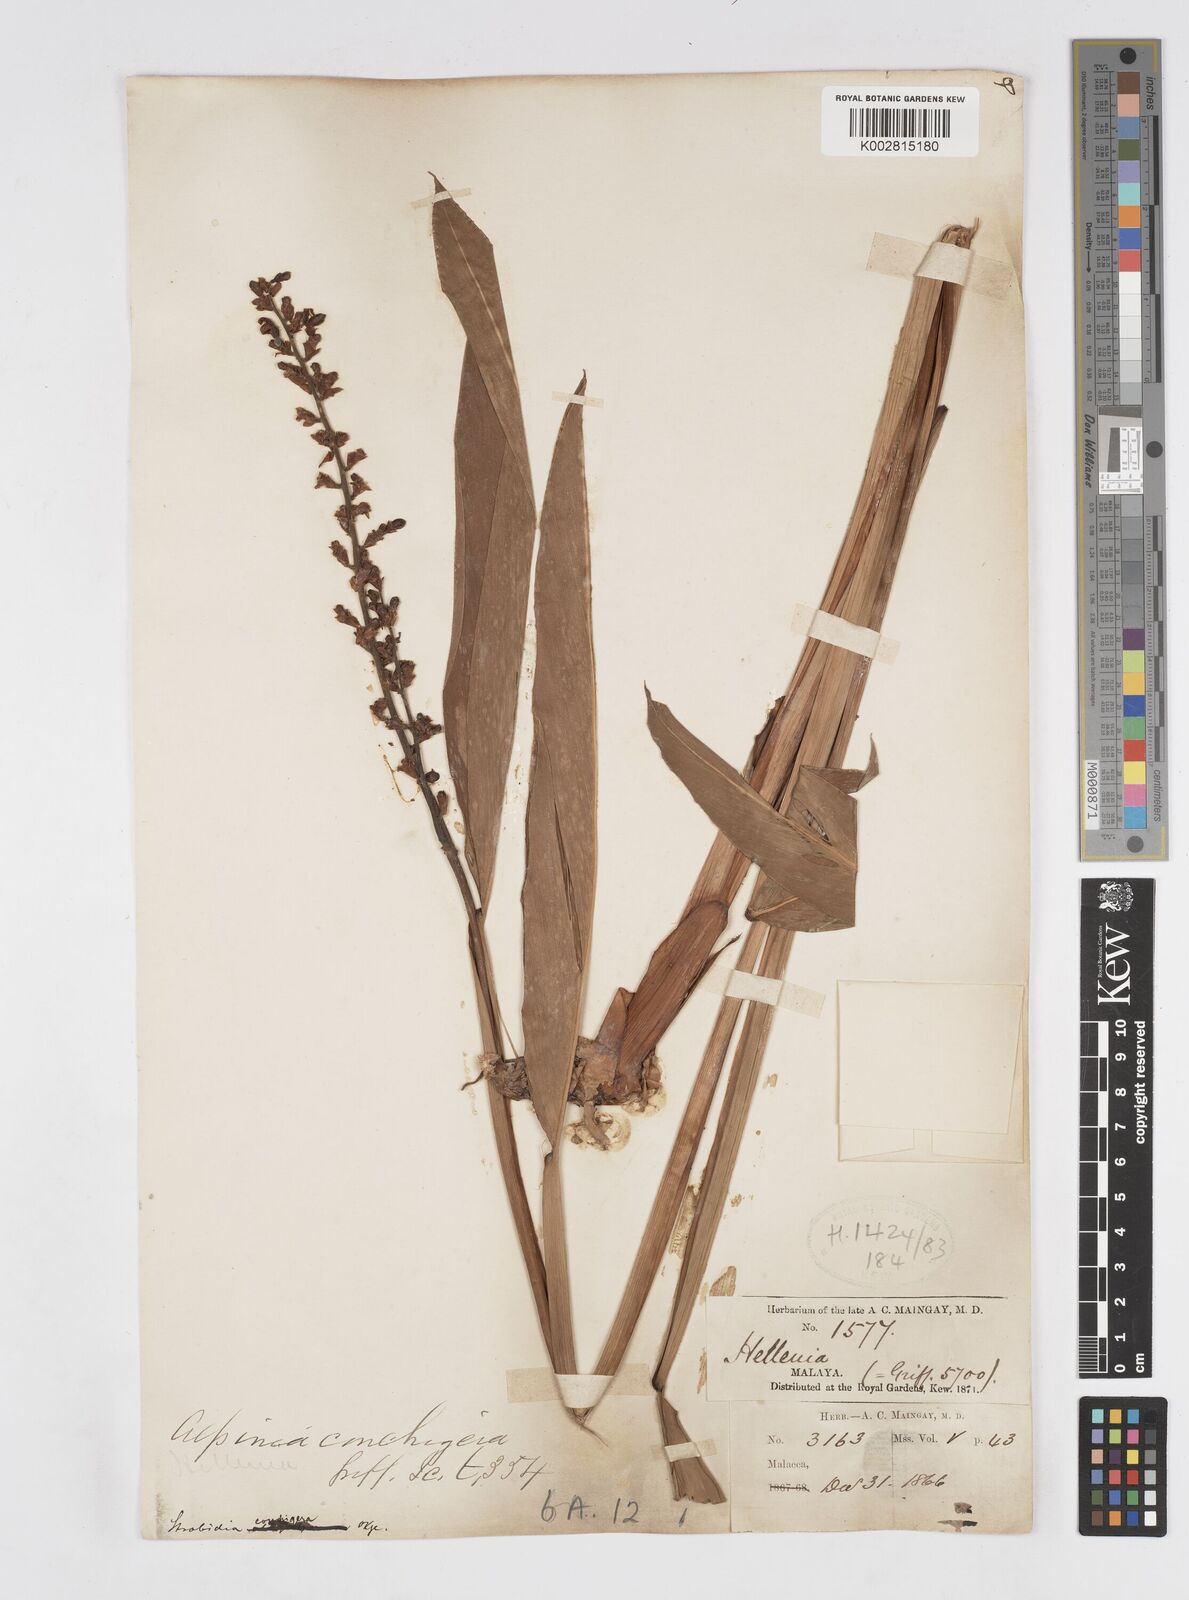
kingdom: Plantae
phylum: Tracheophyta
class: Liliopsida
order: Zingiberales
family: Zingiberaceae
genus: Alpinia
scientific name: Alpinia conchigera
